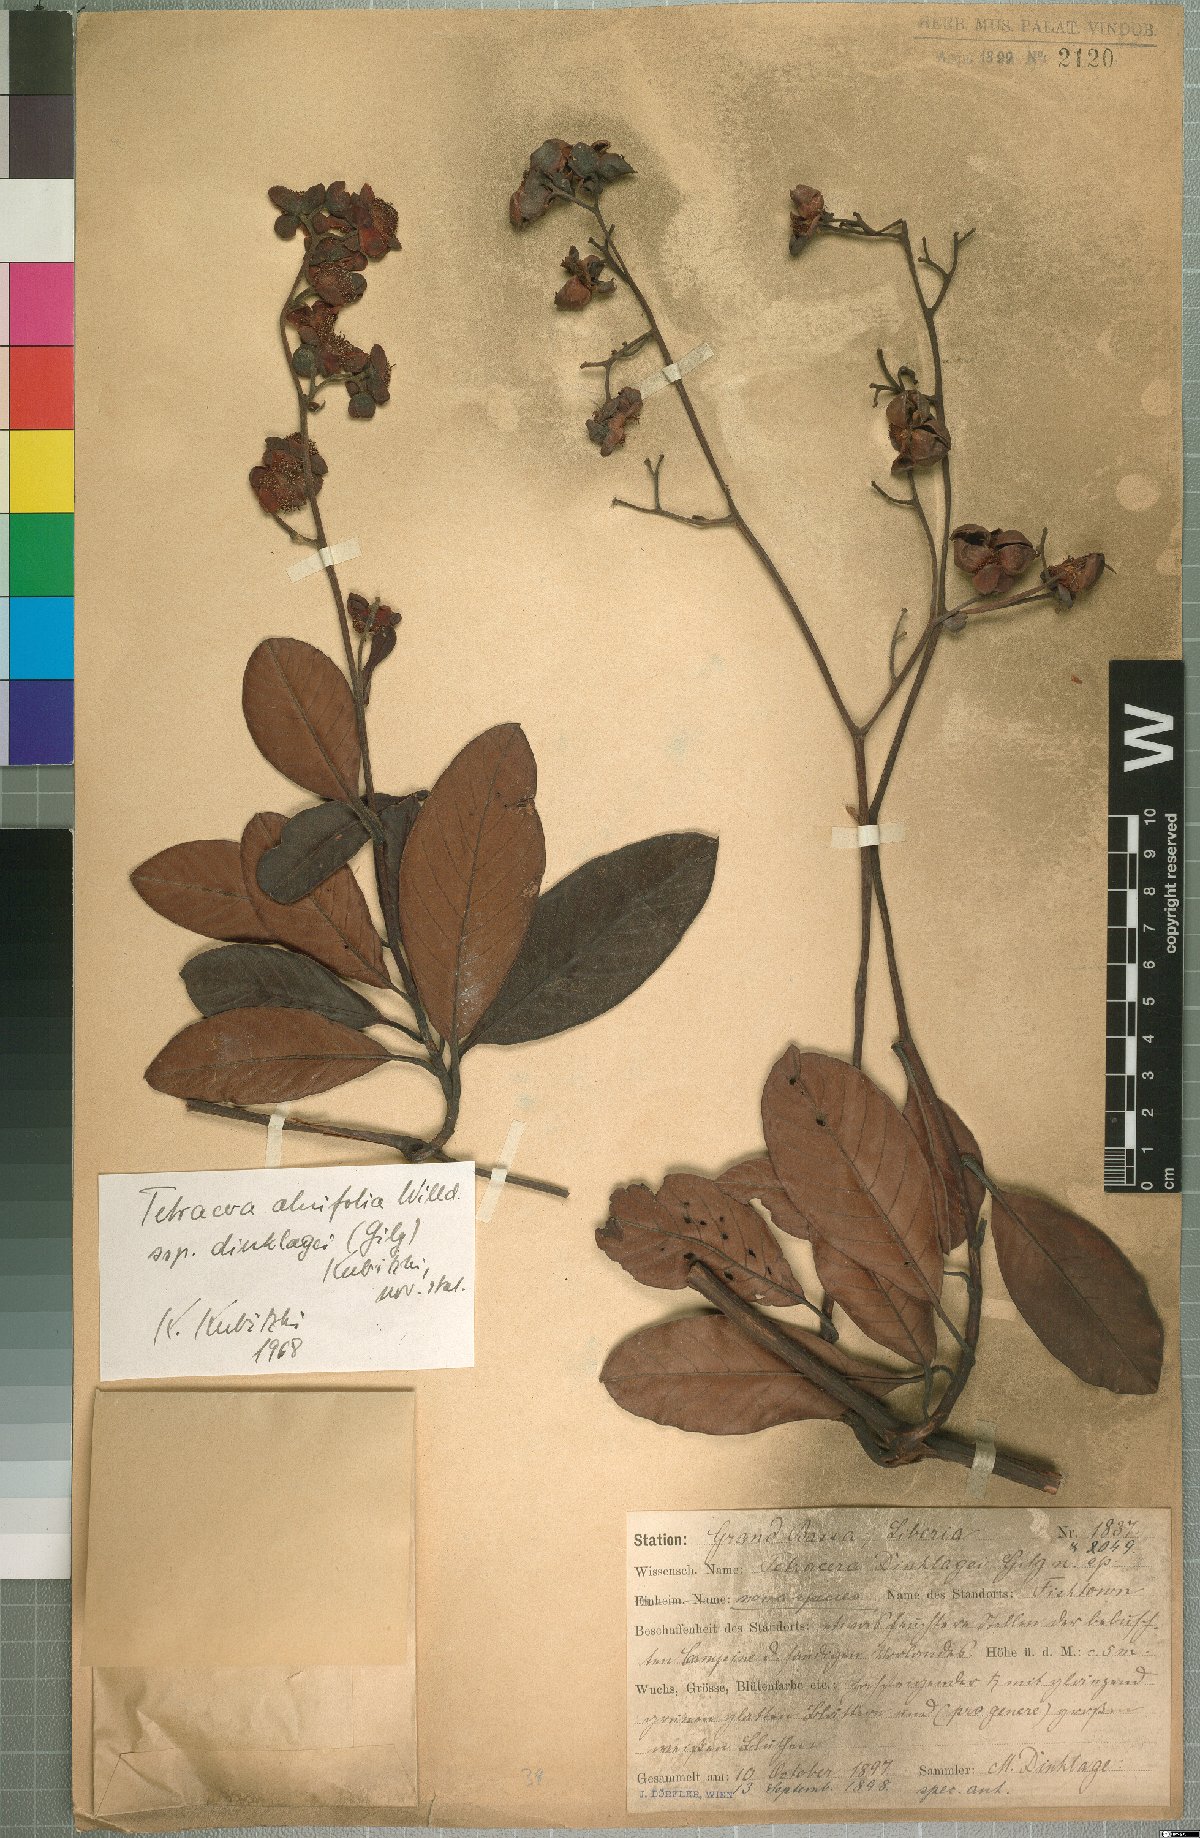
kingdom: Plantae
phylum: Tracheophyta
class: Magnoliopsida
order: Dilleniales
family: Dilleniaceae
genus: Tetracera
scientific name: Tetracera alnifolia
